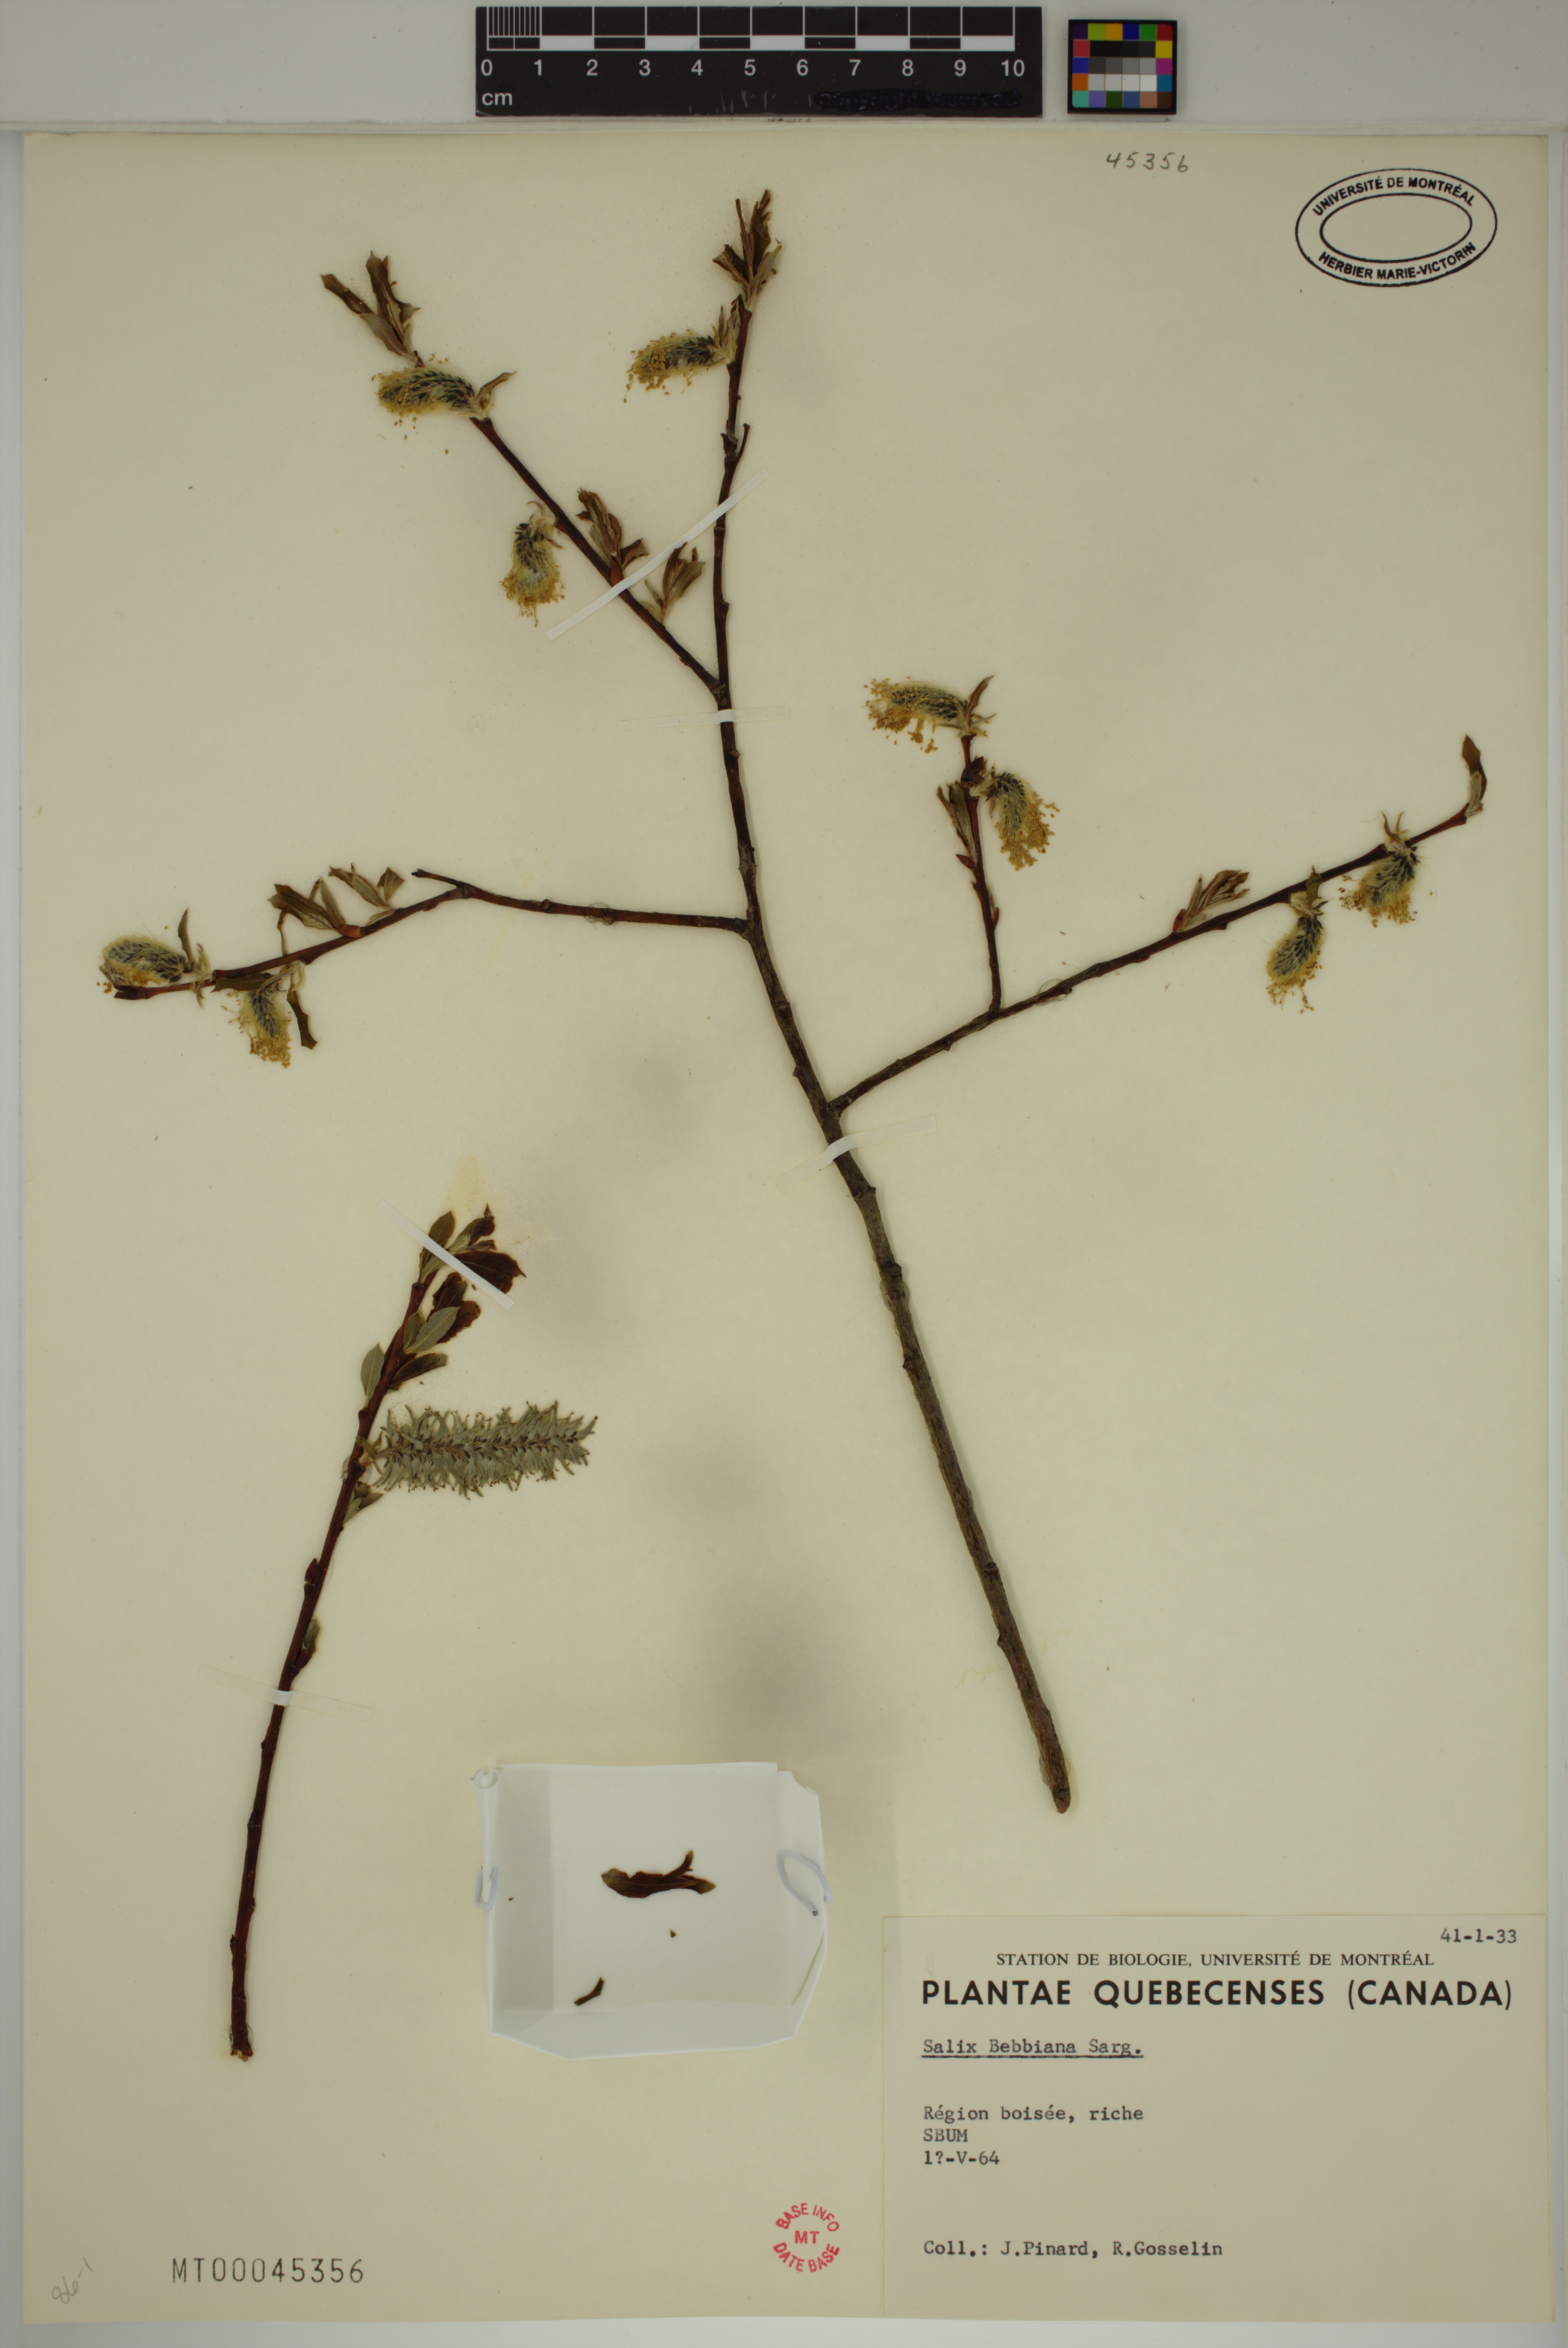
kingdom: Plantae
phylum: Tracheophyta
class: Magnoliopsida
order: Malpighiales
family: Salicaceae
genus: Salix
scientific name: Salix bebbiana
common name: Bebb's willow
